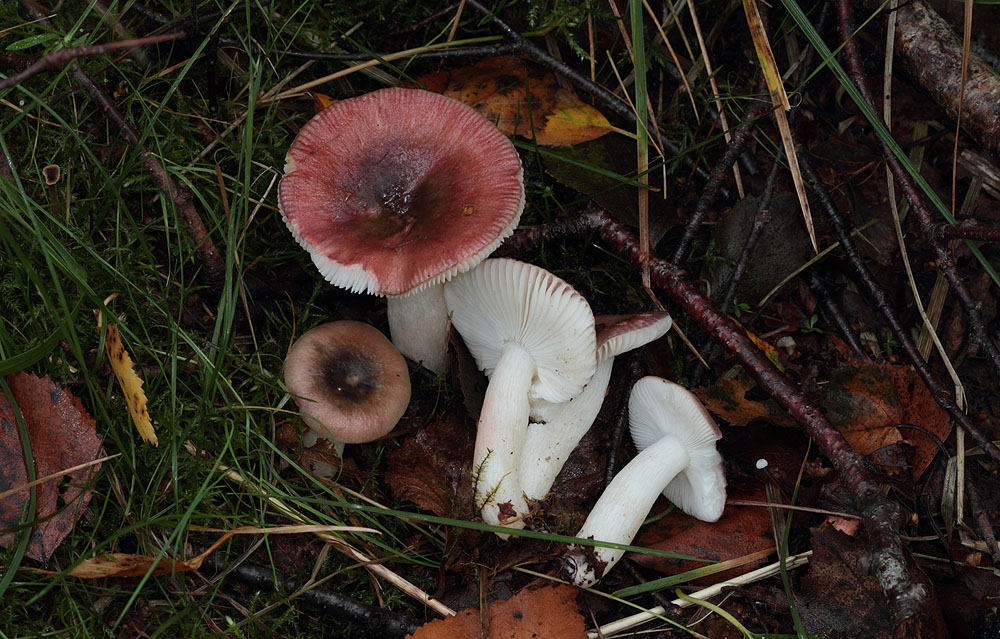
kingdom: Fungi
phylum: Basidiomycota
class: Agaricomycetes
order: Russulales
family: Russulaceae
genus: Russula
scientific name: Russula nitida
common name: året skørhat
